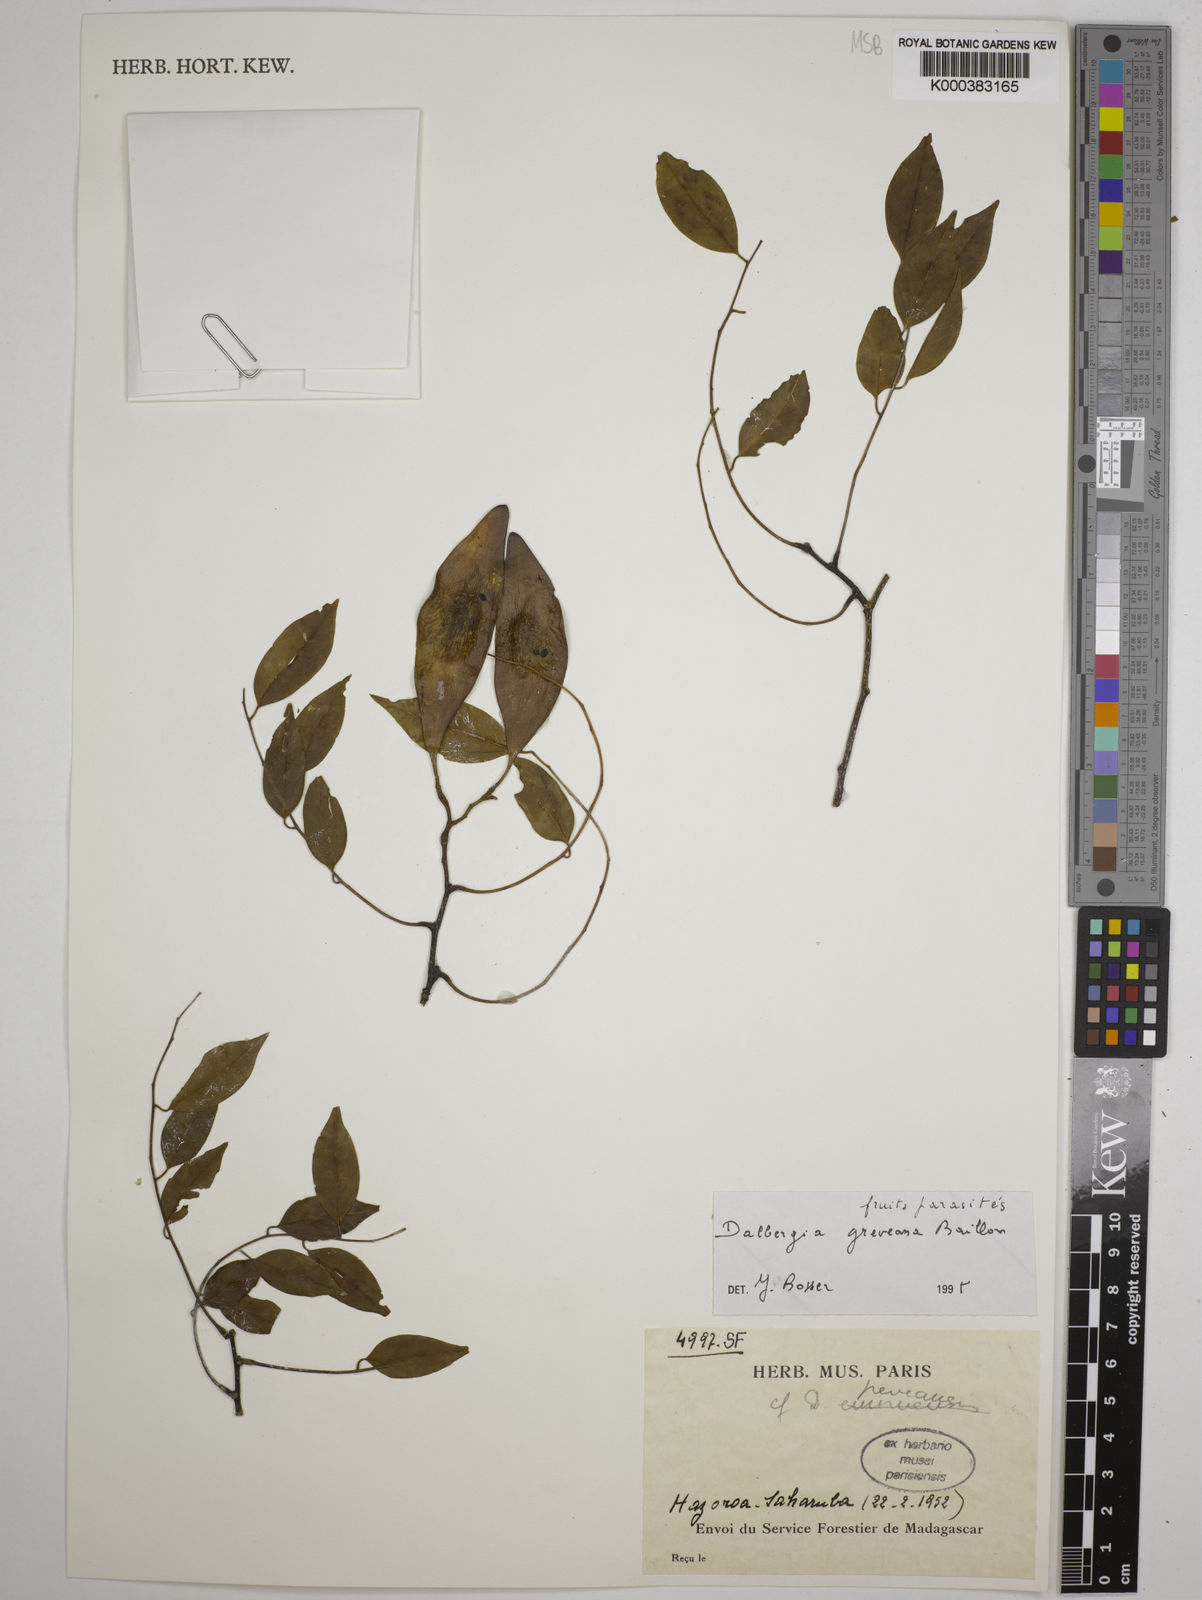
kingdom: Plantae
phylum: Tracheophyta
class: Magnoliopsida
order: Fabales
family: Fabaceae
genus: Dalbergia
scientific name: Dalbergia greveana
